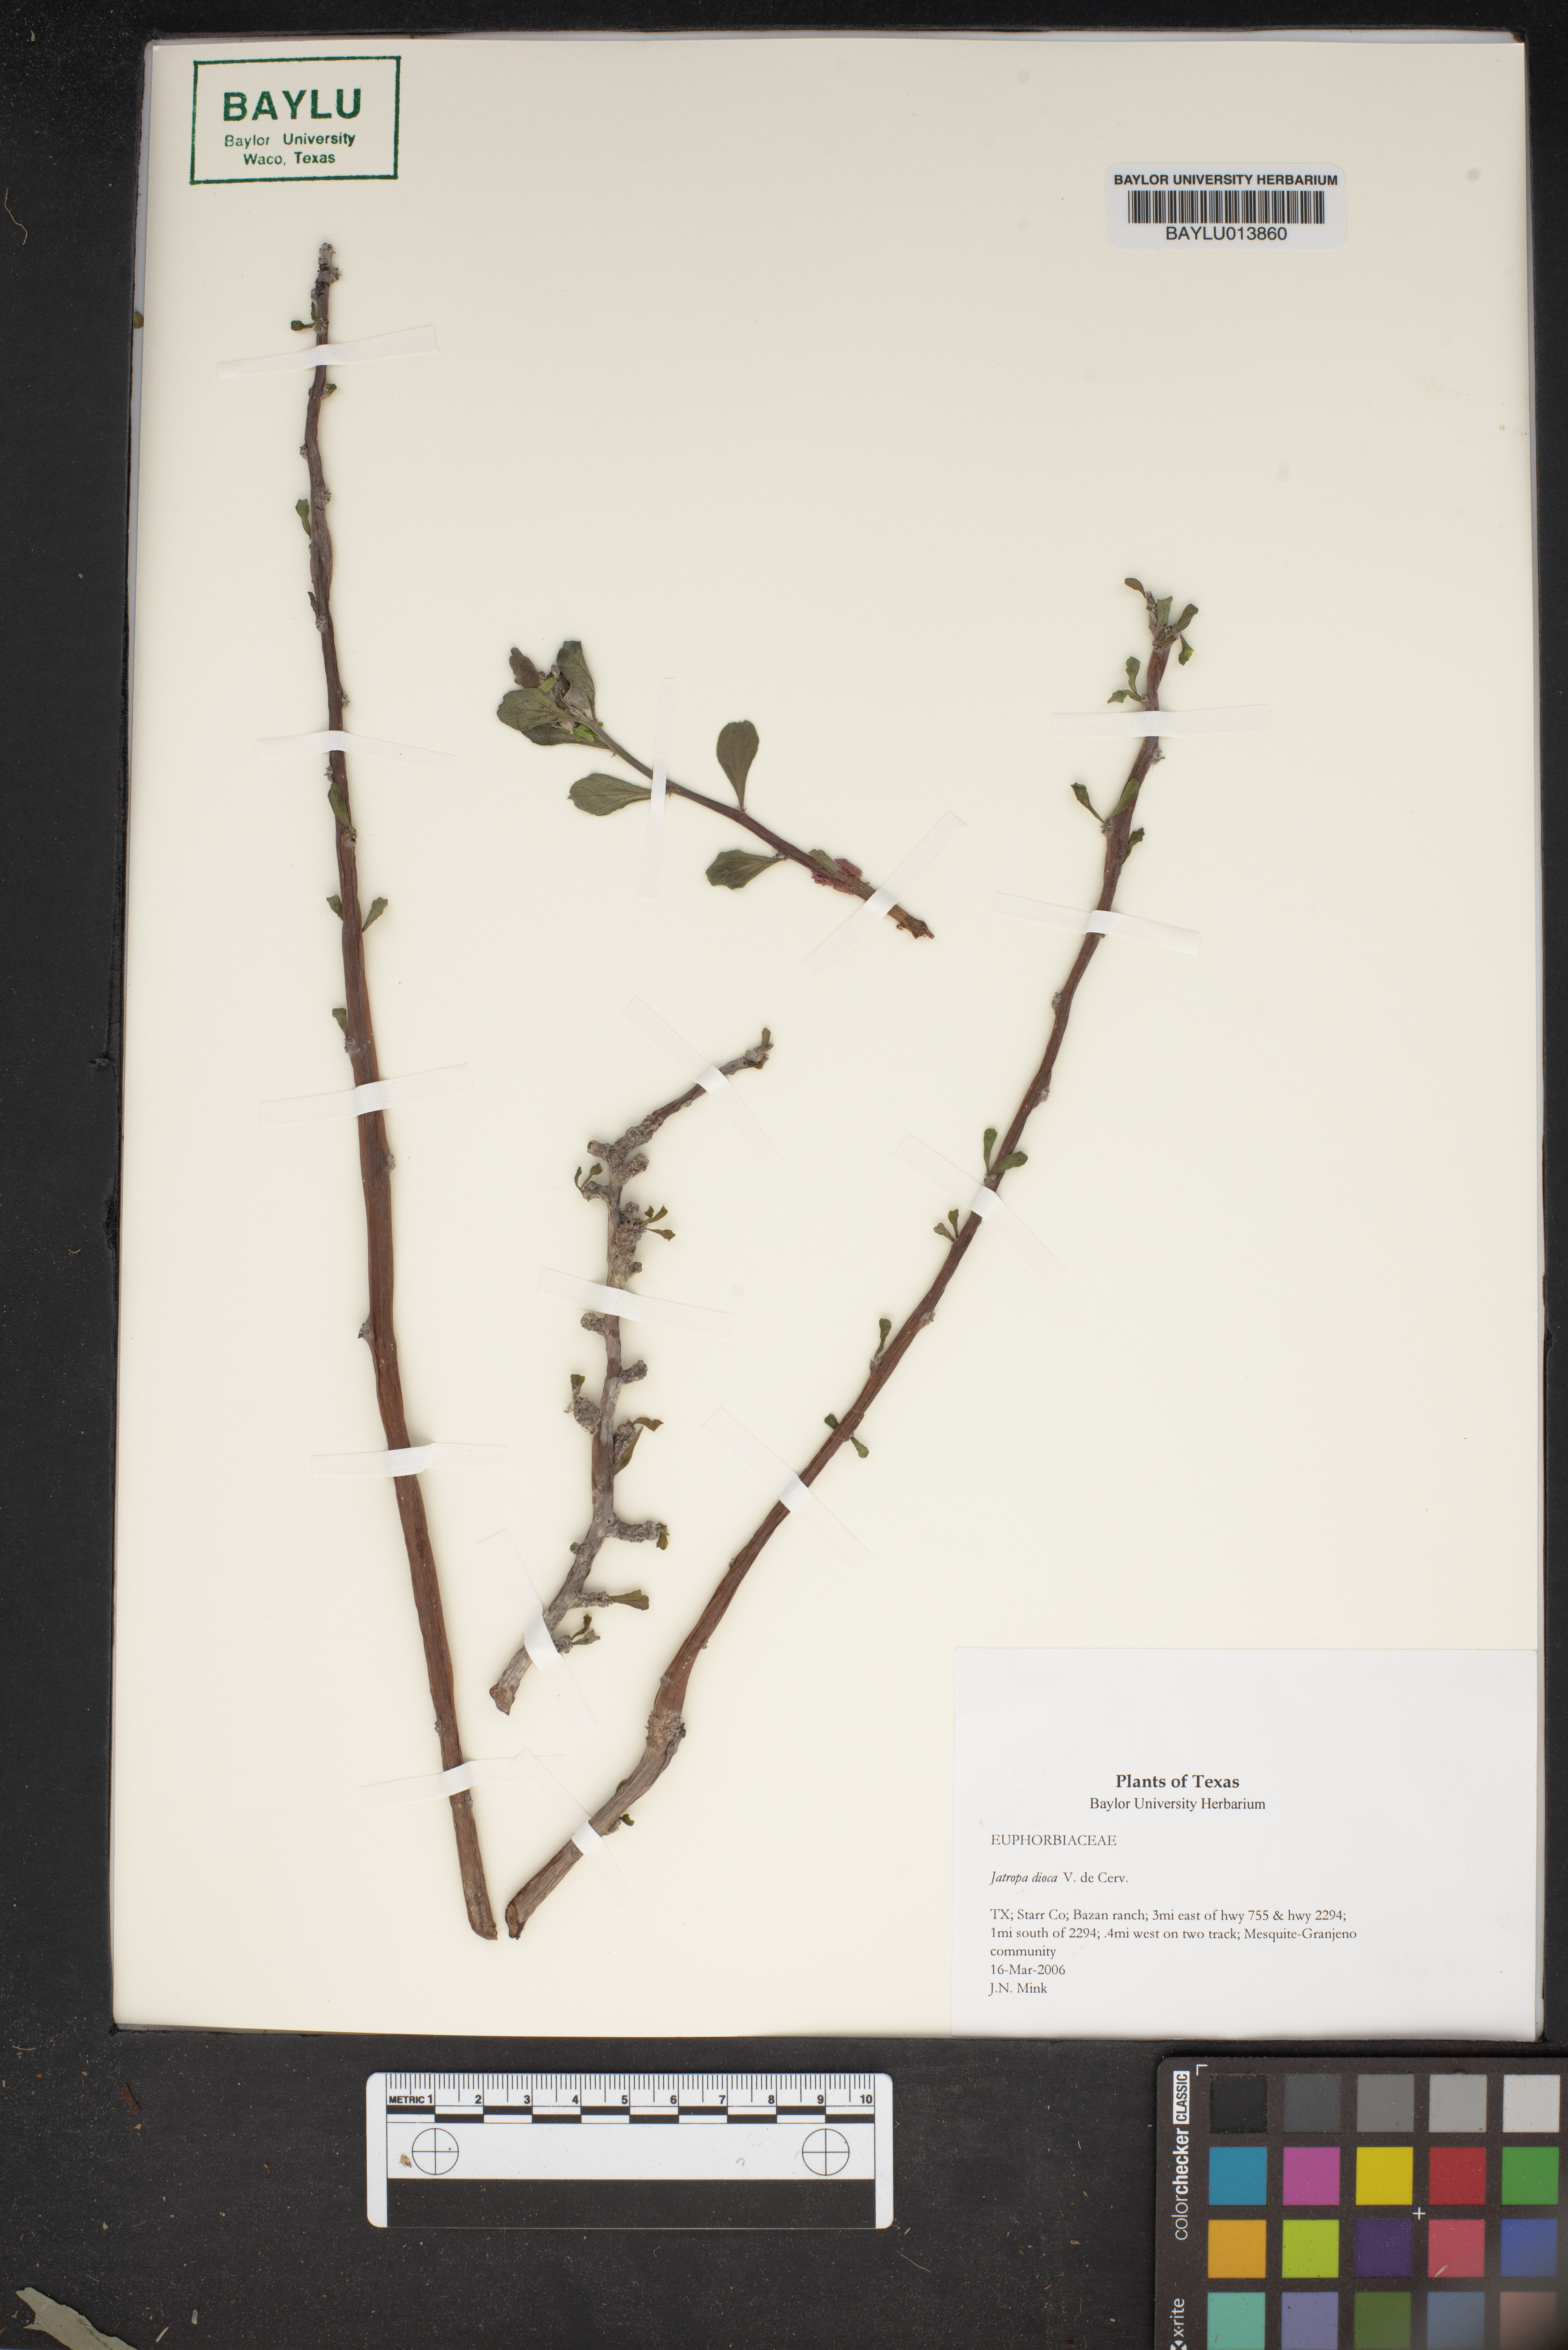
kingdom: Plantae
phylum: Tracheophyta
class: Magnoliopsida
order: Malpighiales
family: Euphorbiaceae
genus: Jatropha
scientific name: Jatropha dioica
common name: Leatherstem
